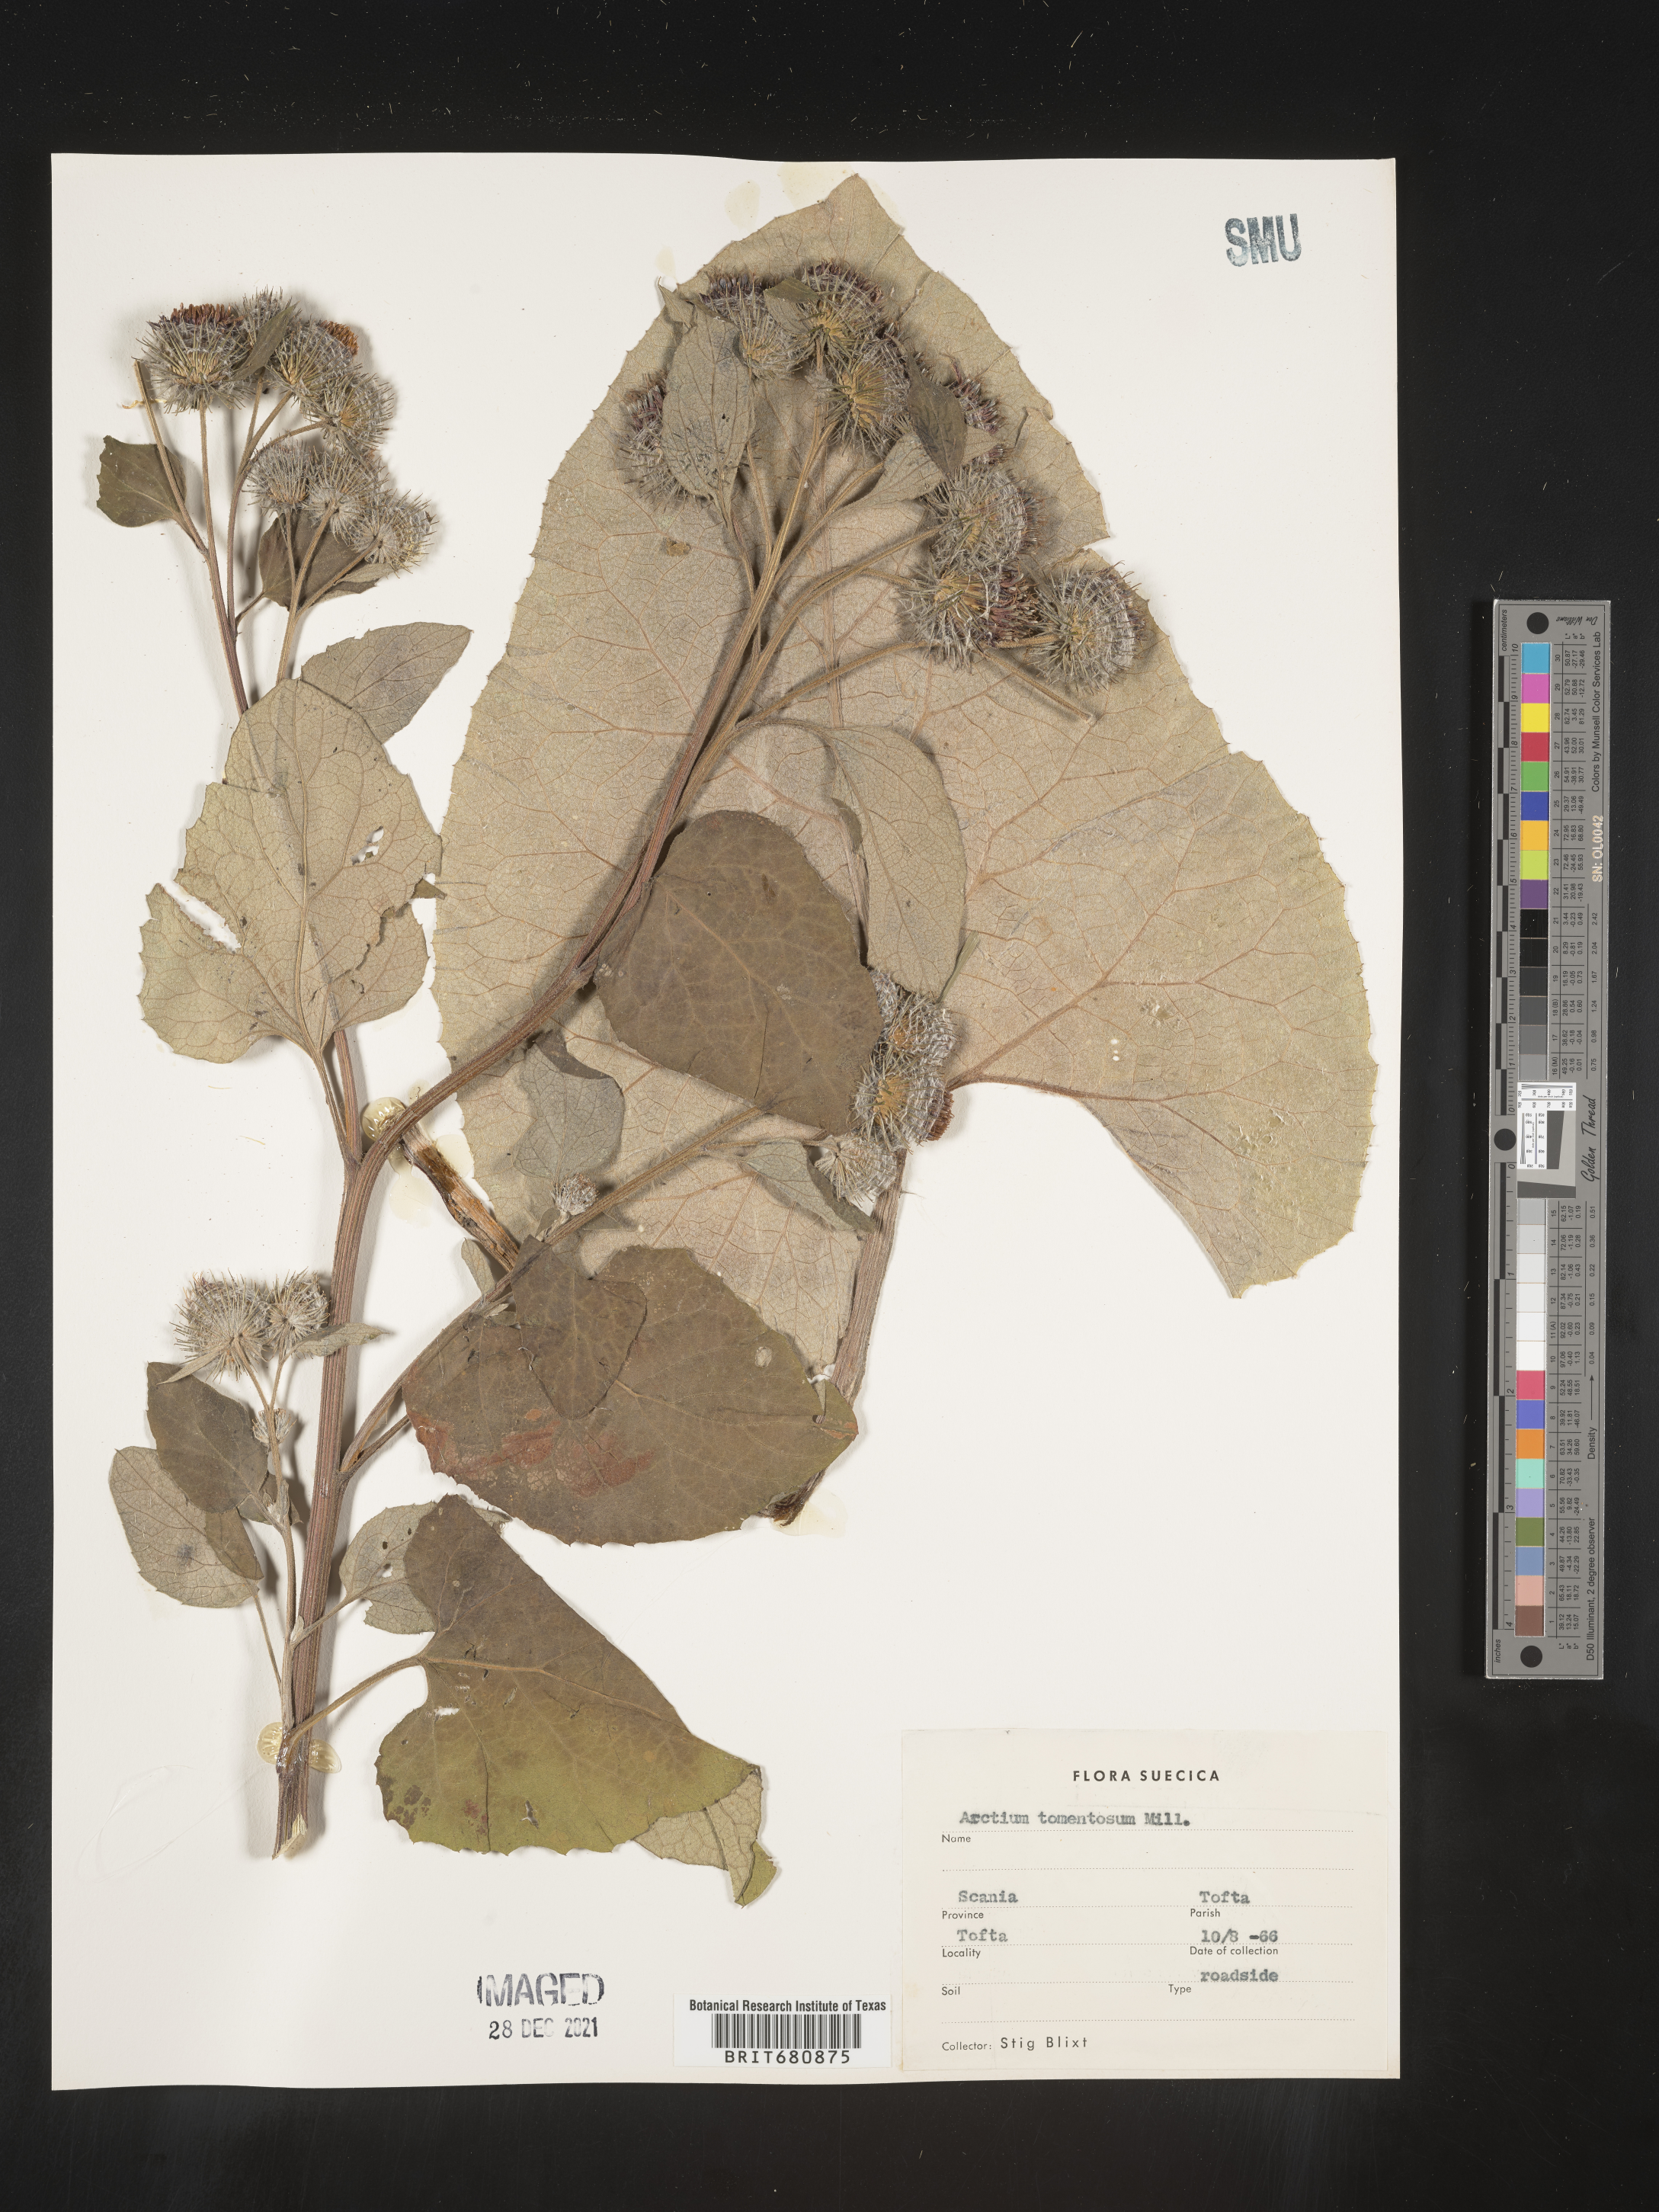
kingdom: Plantae
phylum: Tracheophyta
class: Magnoliopsida
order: Asterales
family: Asteraceae
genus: Arctium
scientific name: Arctium tomentosum
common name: Woolly burdock
